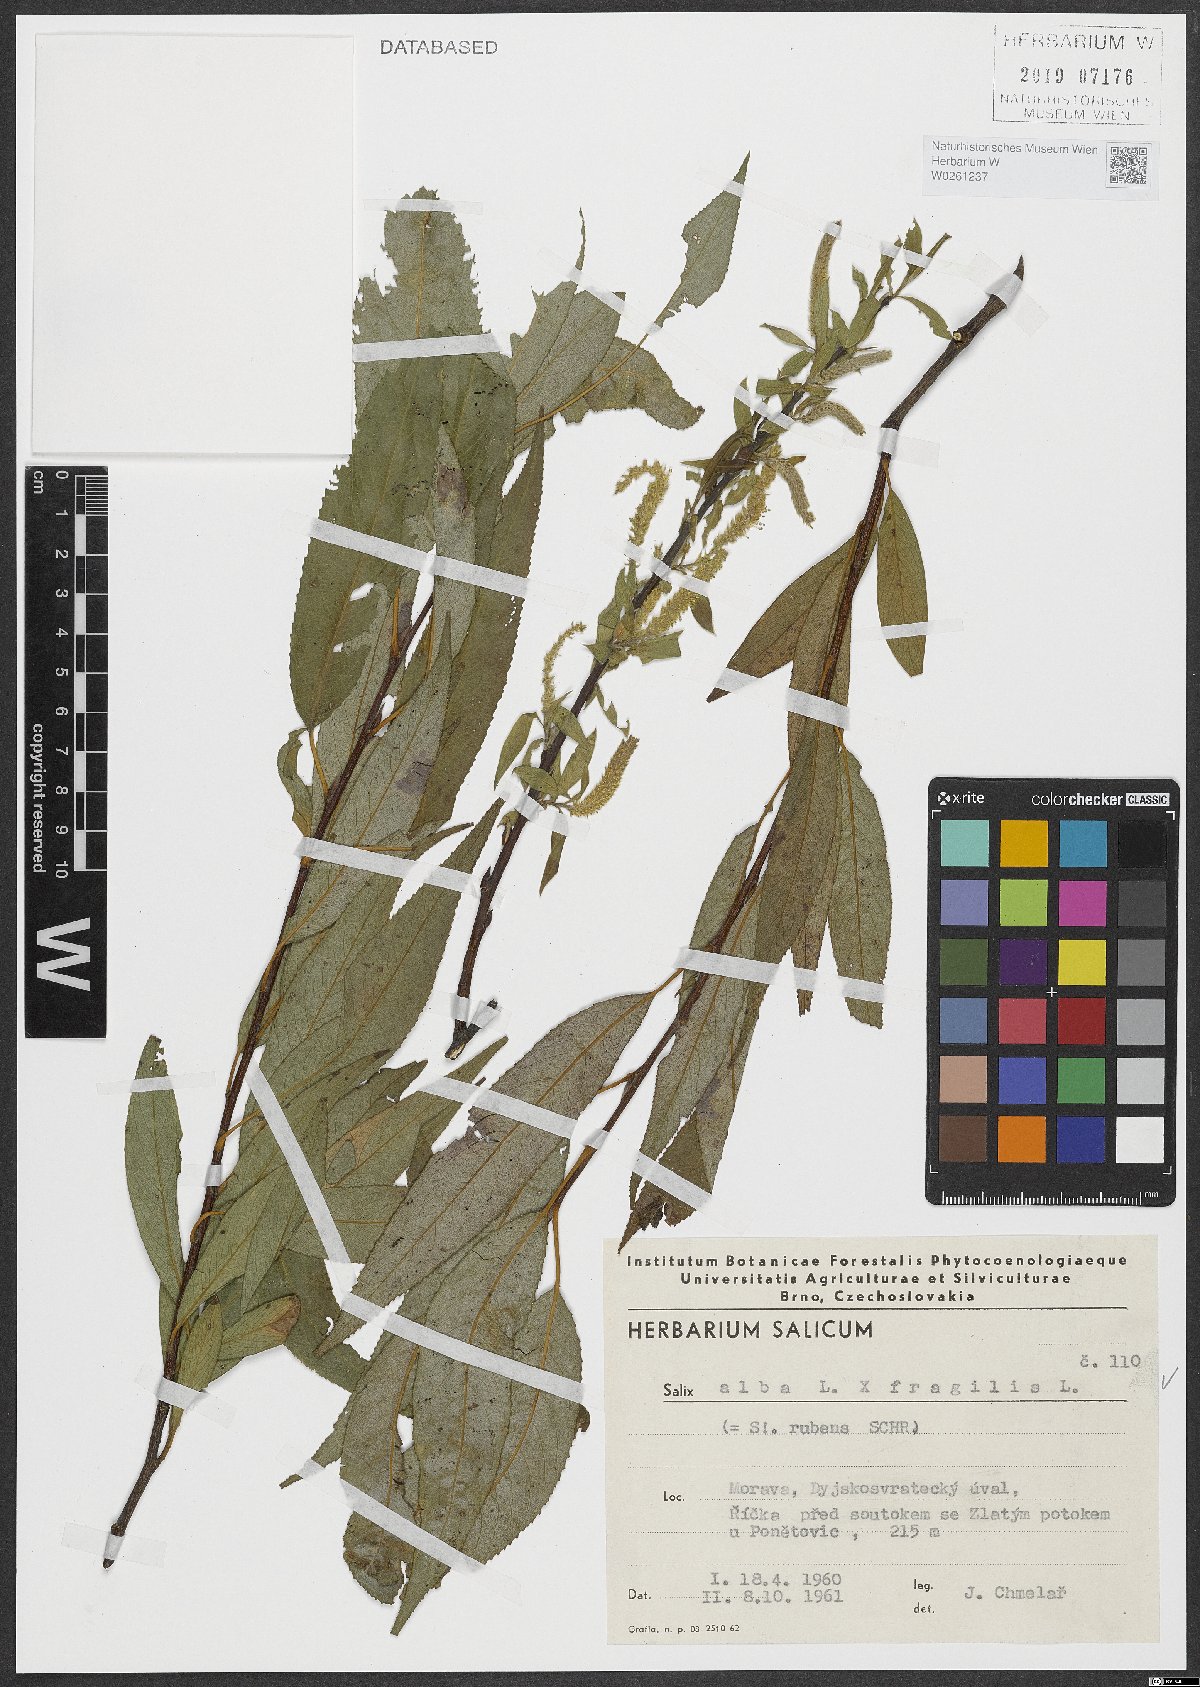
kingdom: Plantae
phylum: Tracheophyta
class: Magnoliopsida
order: Malpighiales
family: Salicaceae
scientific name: Salicaceae
